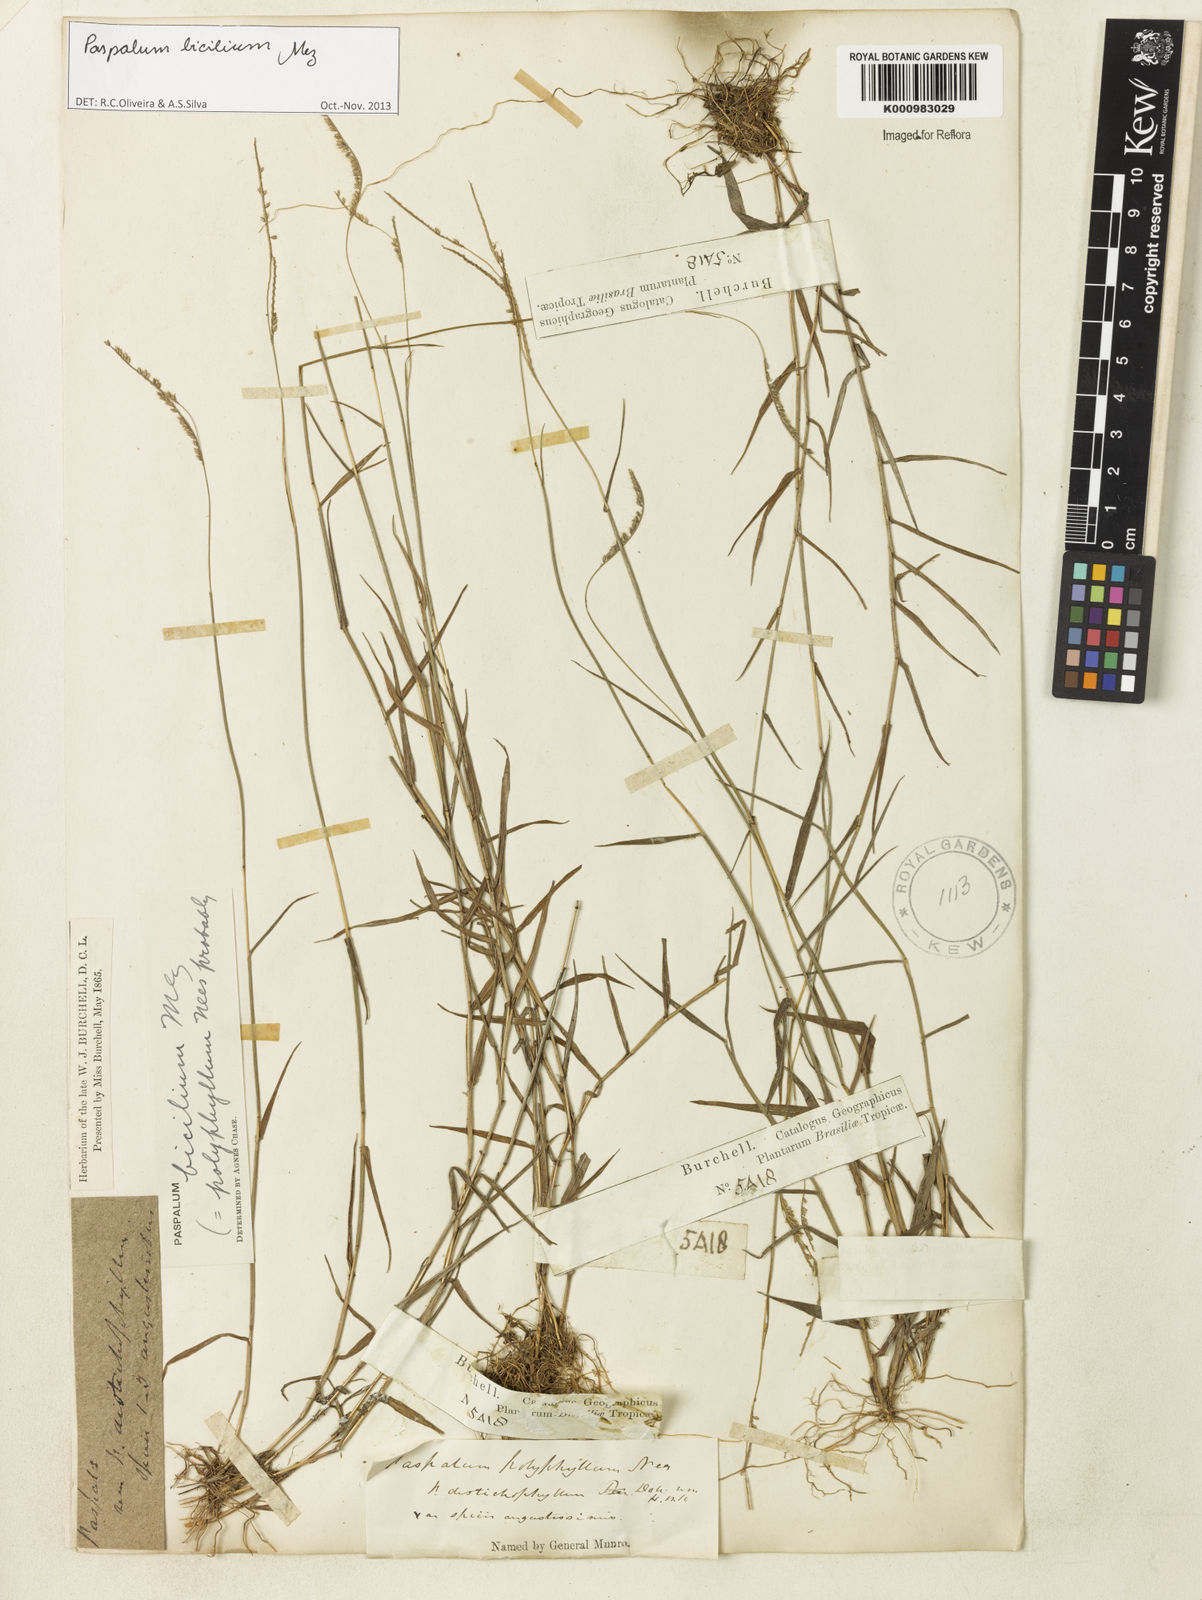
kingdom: Plantae
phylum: Tracheophyta
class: Liliopsida
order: Poales
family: Poaceae
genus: Paspalum
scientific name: Paspalum polyphyllum
